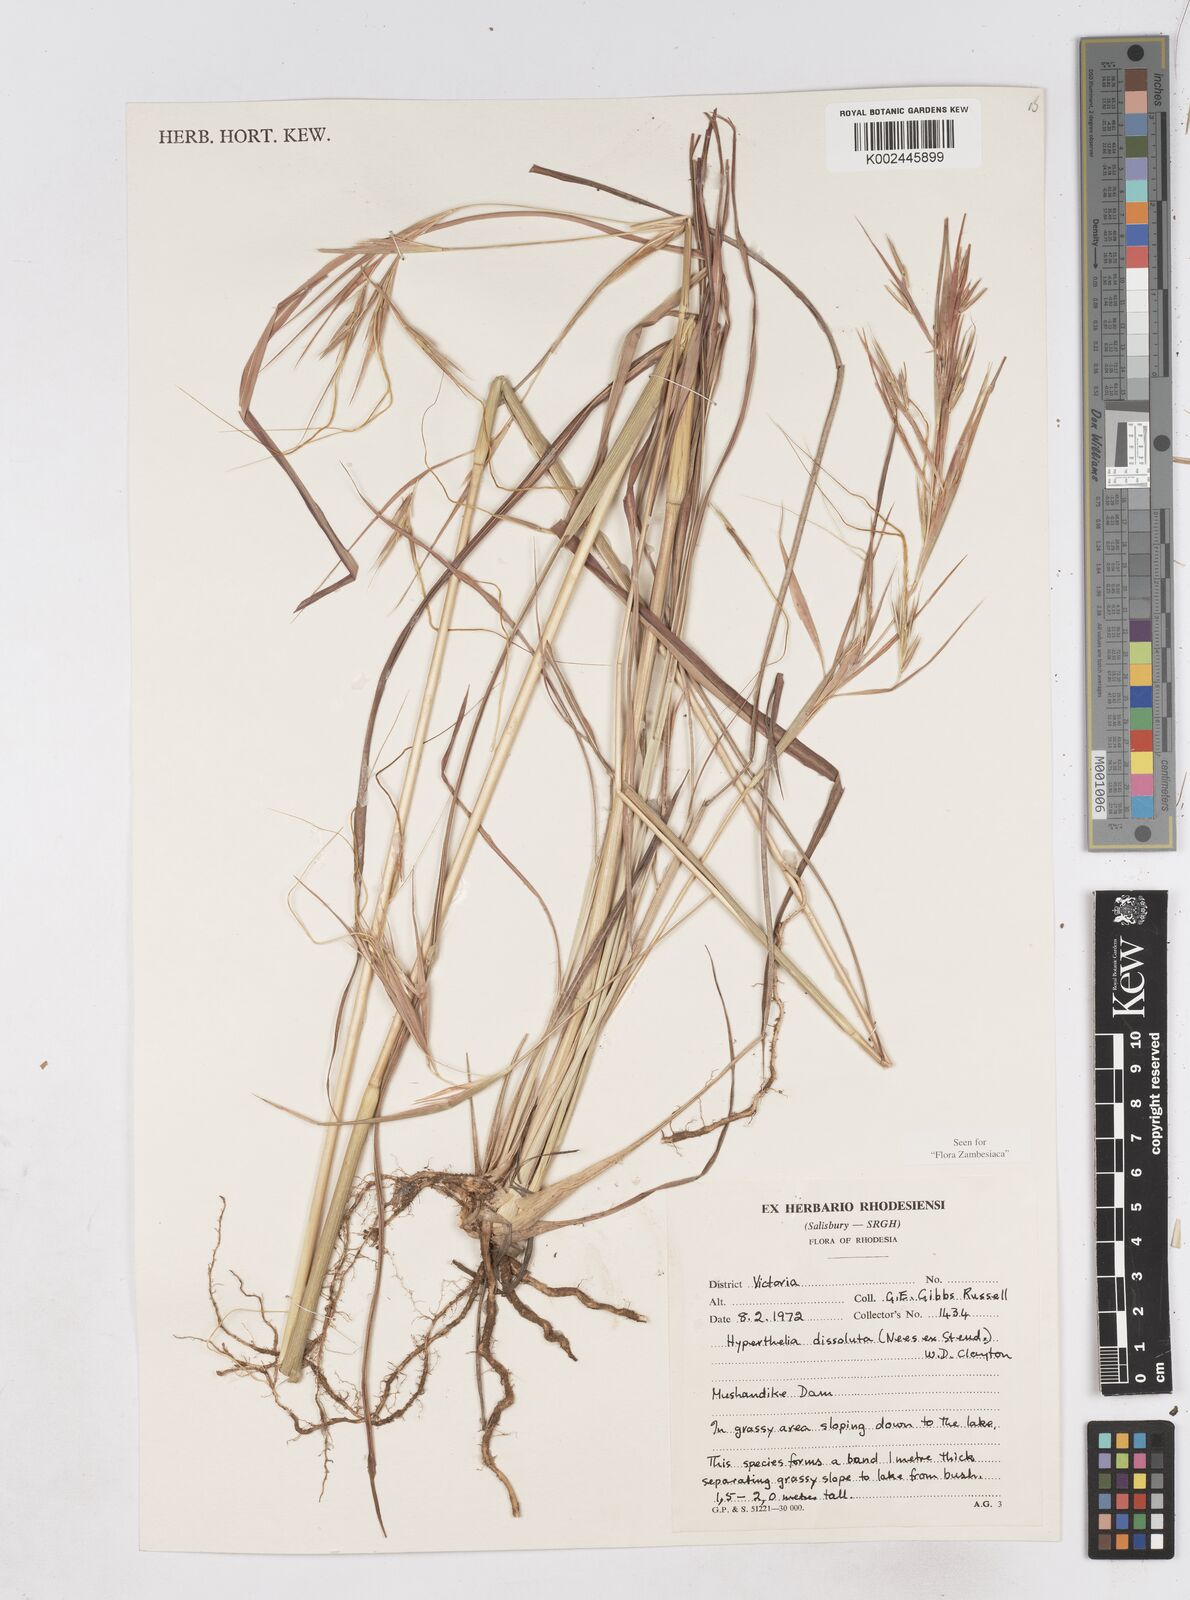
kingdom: Plantae
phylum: Tracheophyta
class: Liliopsida
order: Poales
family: Poaceae
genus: Hyperthelia
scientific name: Hyperthelia dissoluta
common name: Yellow thatching grass
